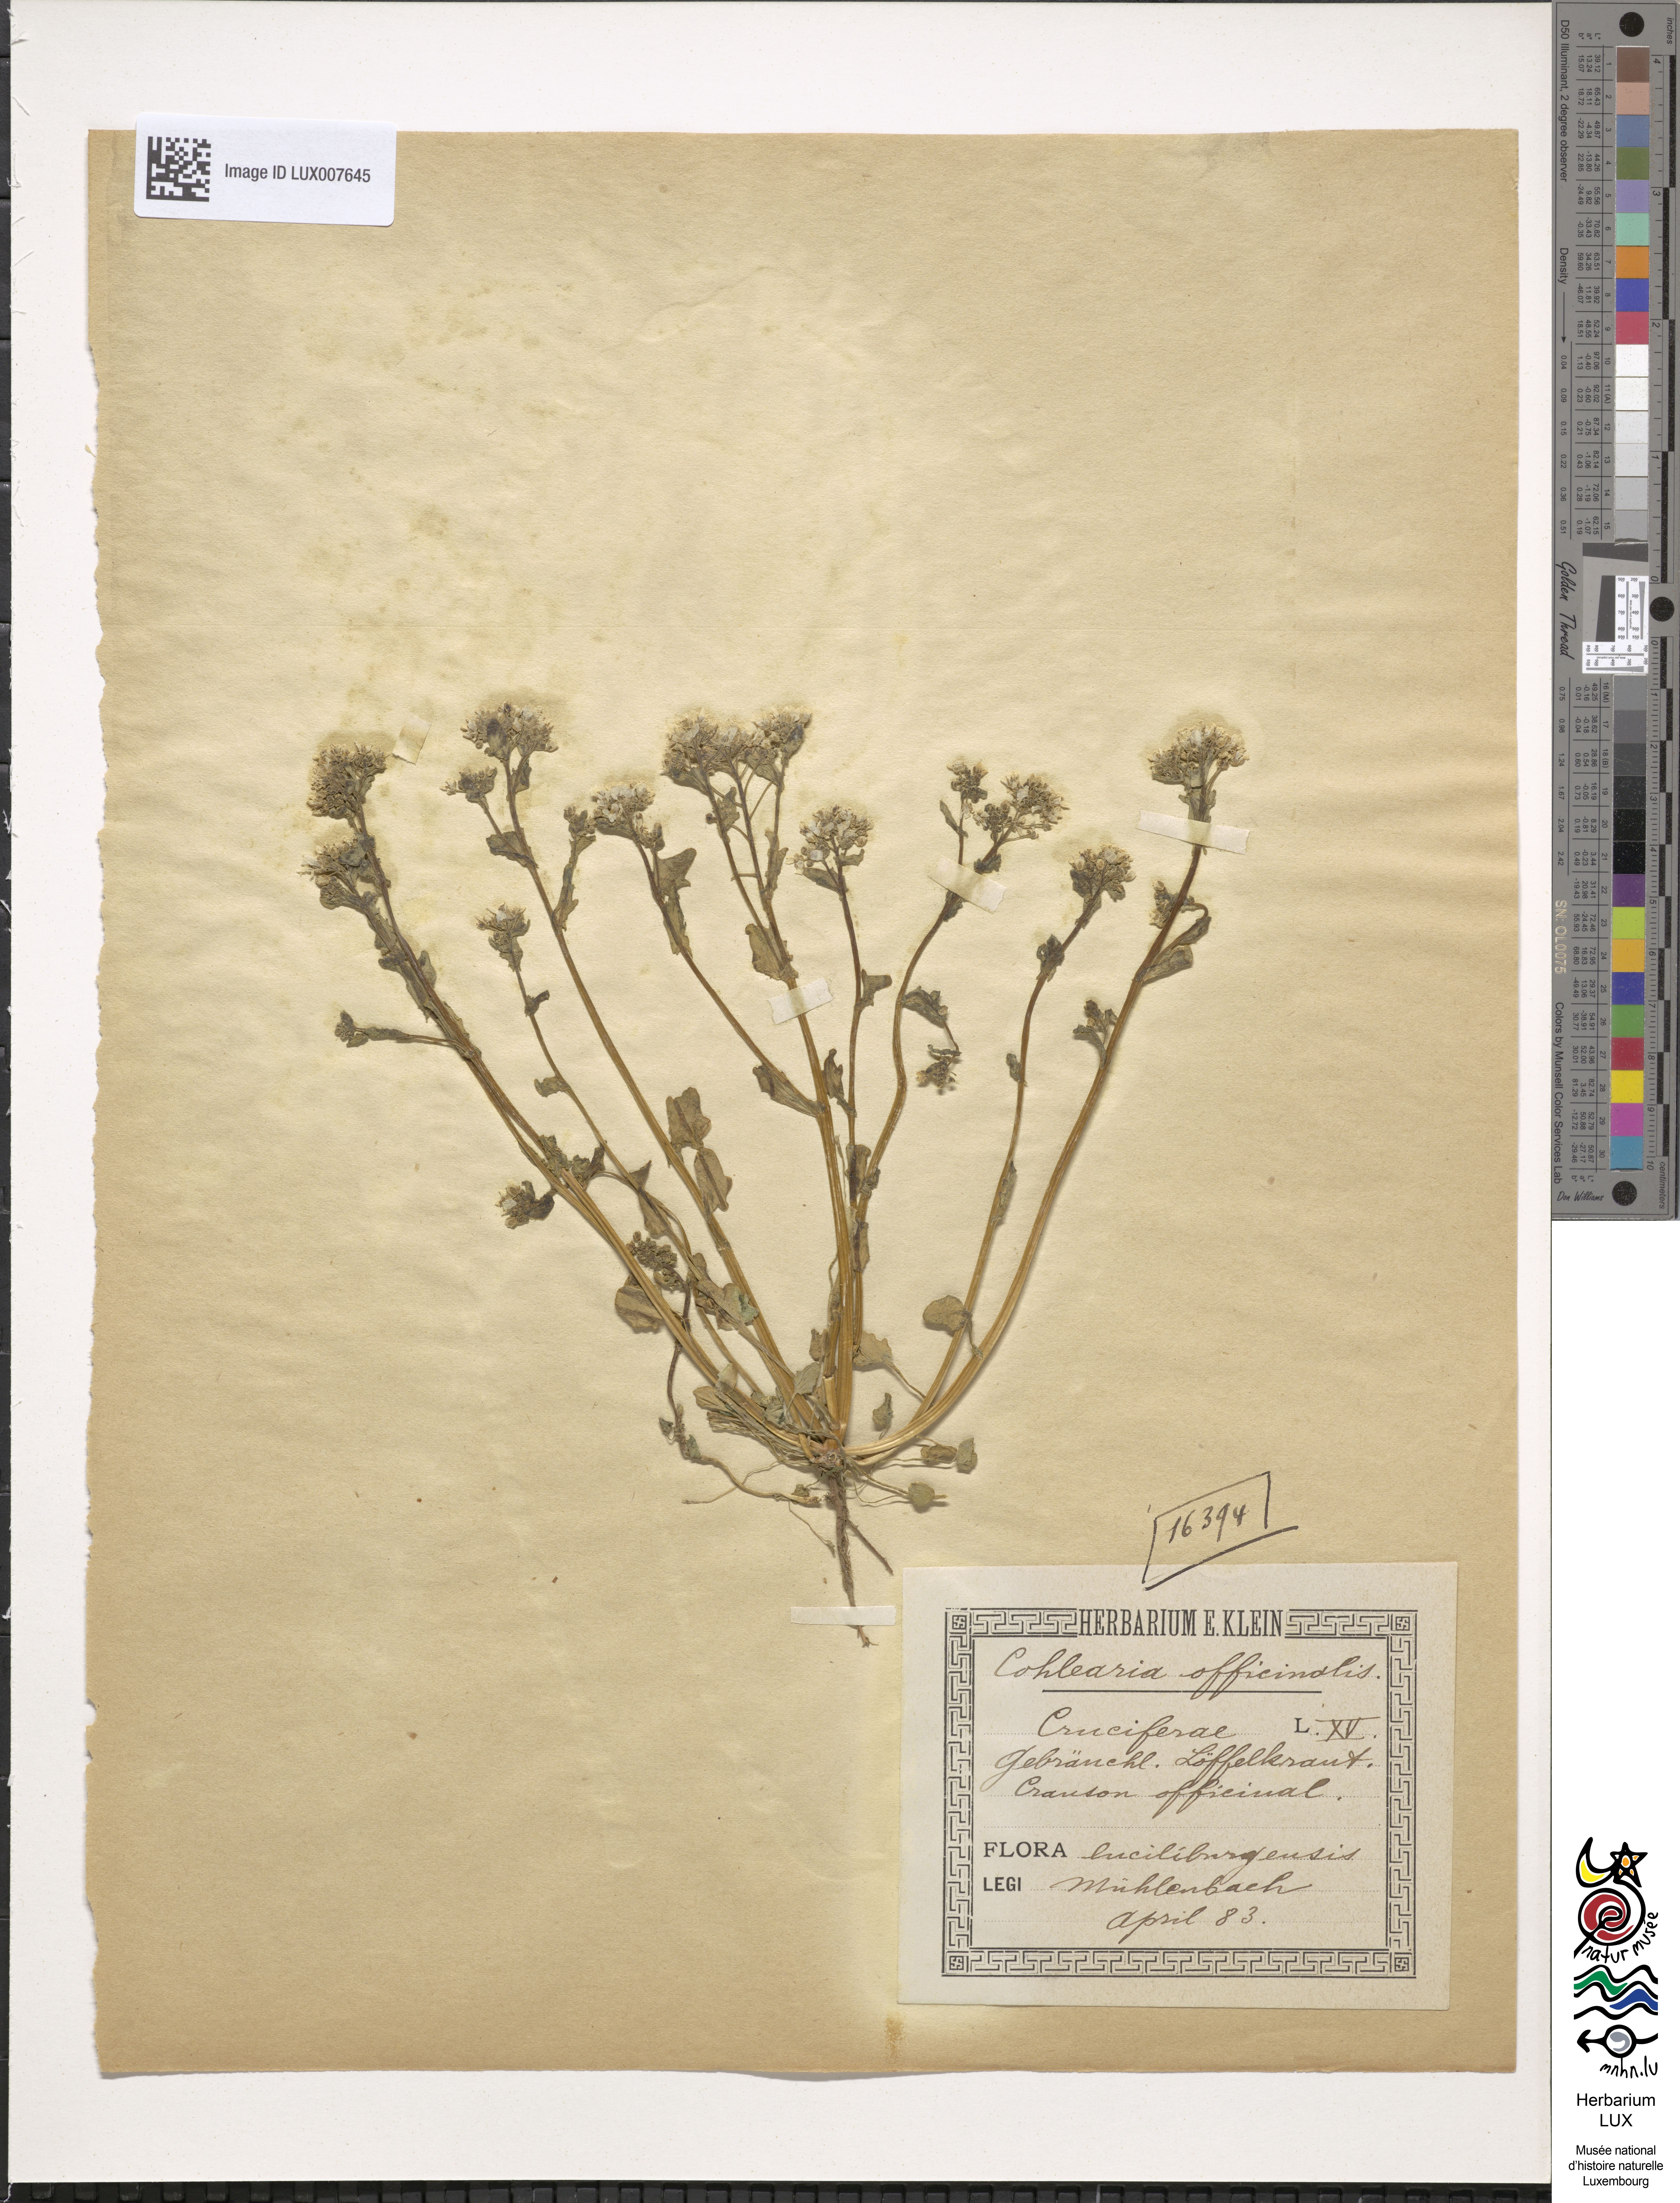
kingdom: Plantae
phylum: Tracheophyta
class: Magnoliopsida
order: Brassicales
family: Brassicaceae
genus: Cochlearia
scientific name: Cochlearia officinalis
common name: Scurvy-grass
